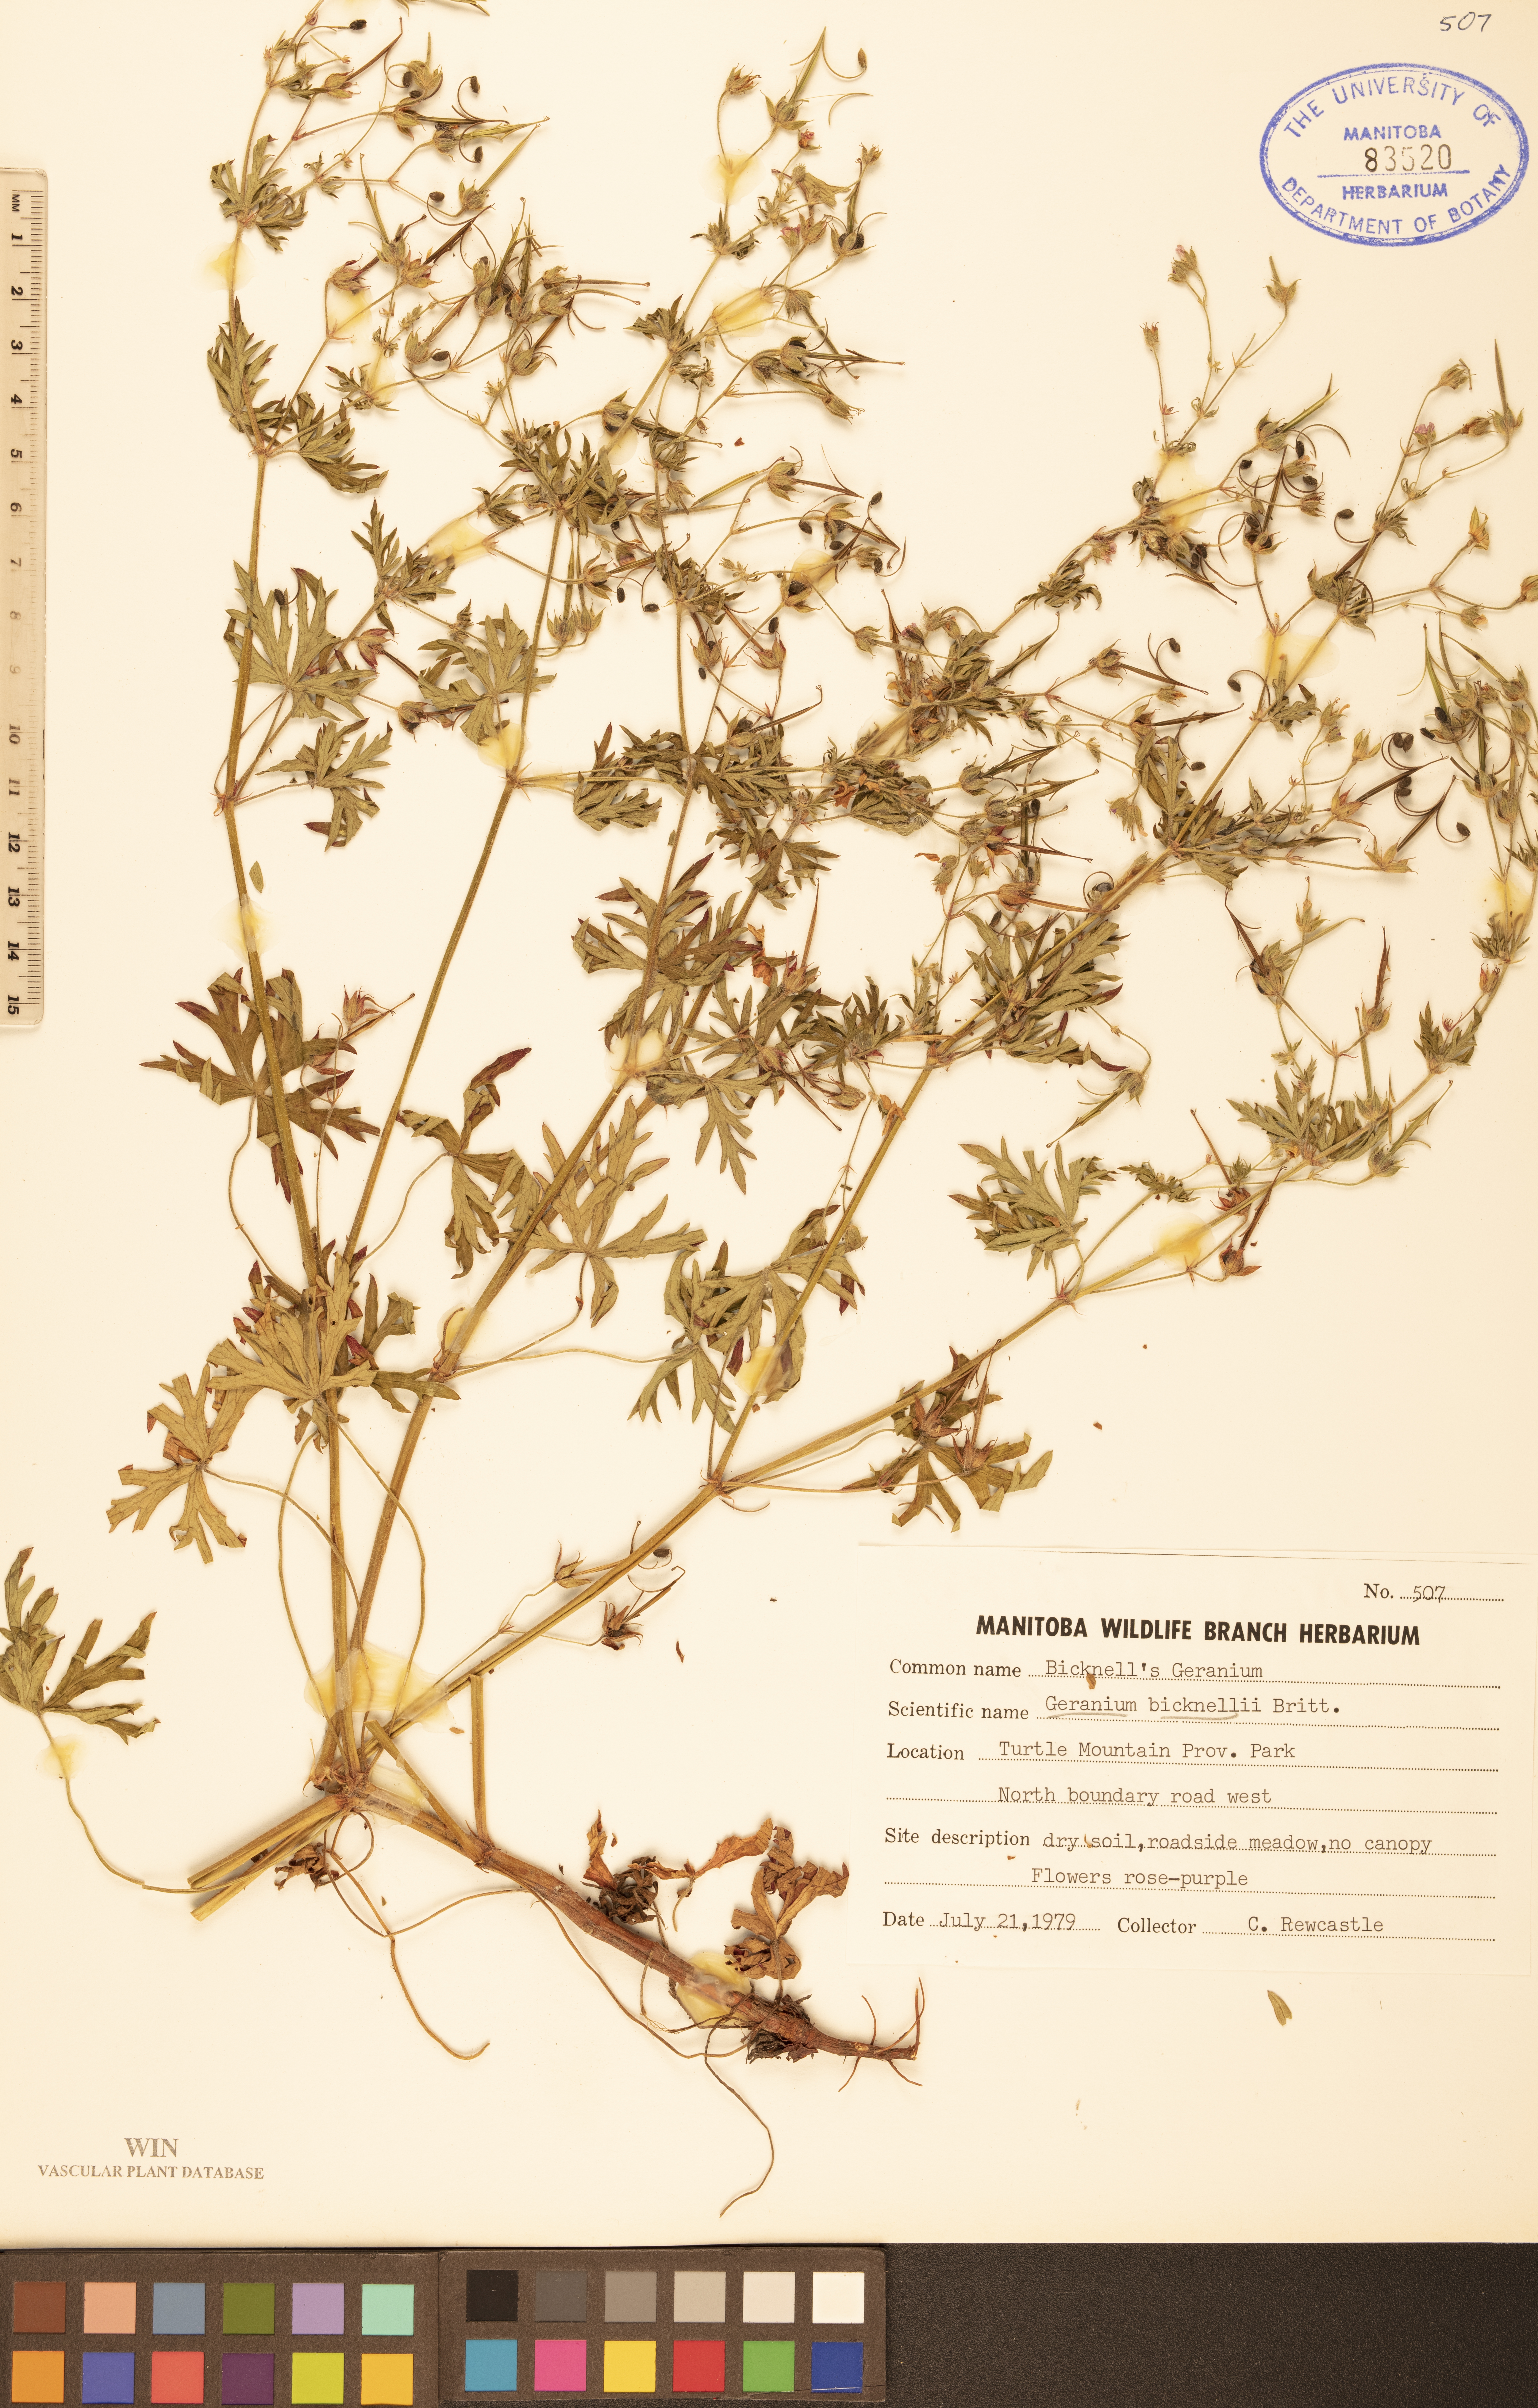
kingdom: Plantae
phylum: Tracheophyta
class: Magnoliopsida
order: Geraniales
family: Geraniaceae
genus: Geranium
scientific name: Geranium bicknellii
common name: Bicknell's cranesbill
